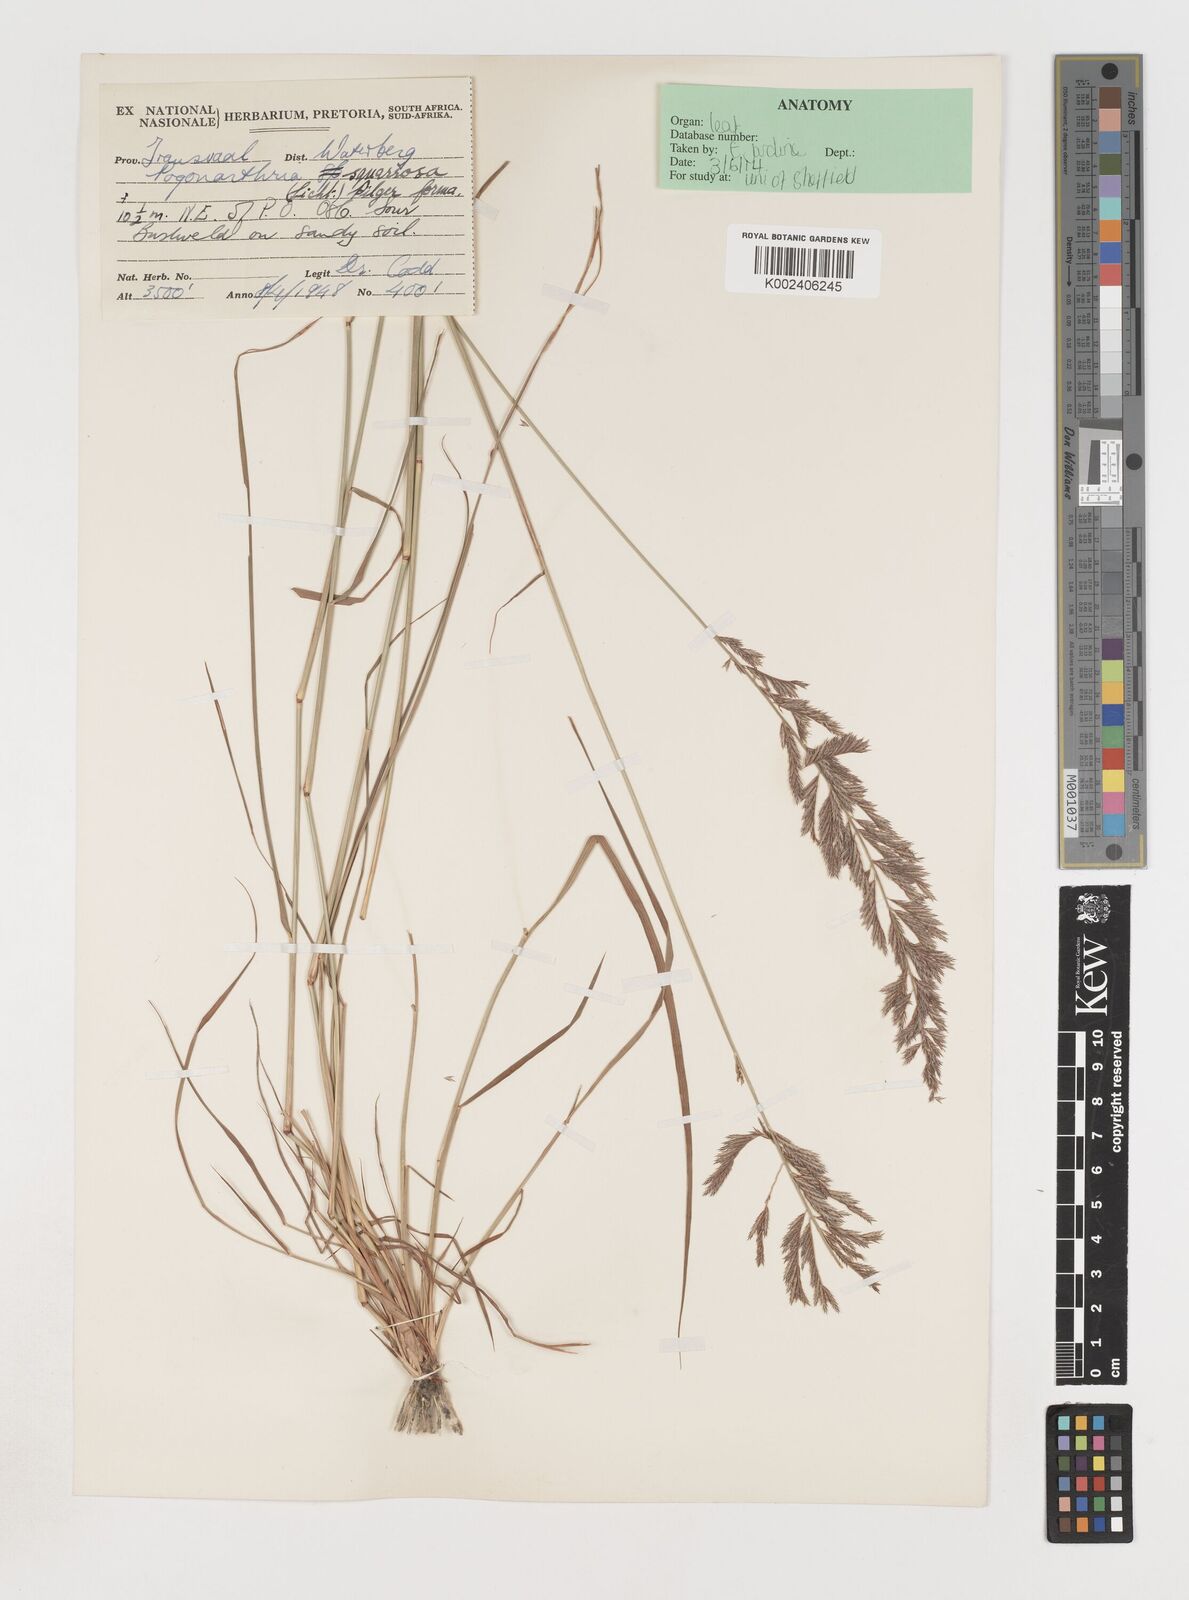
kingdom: Plantae
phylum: Tracheophyta
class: Liliopsida
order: Poales
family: Poaceae
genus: Pogonarthria
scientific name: Pogonarthria squarrosa
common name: Grass
